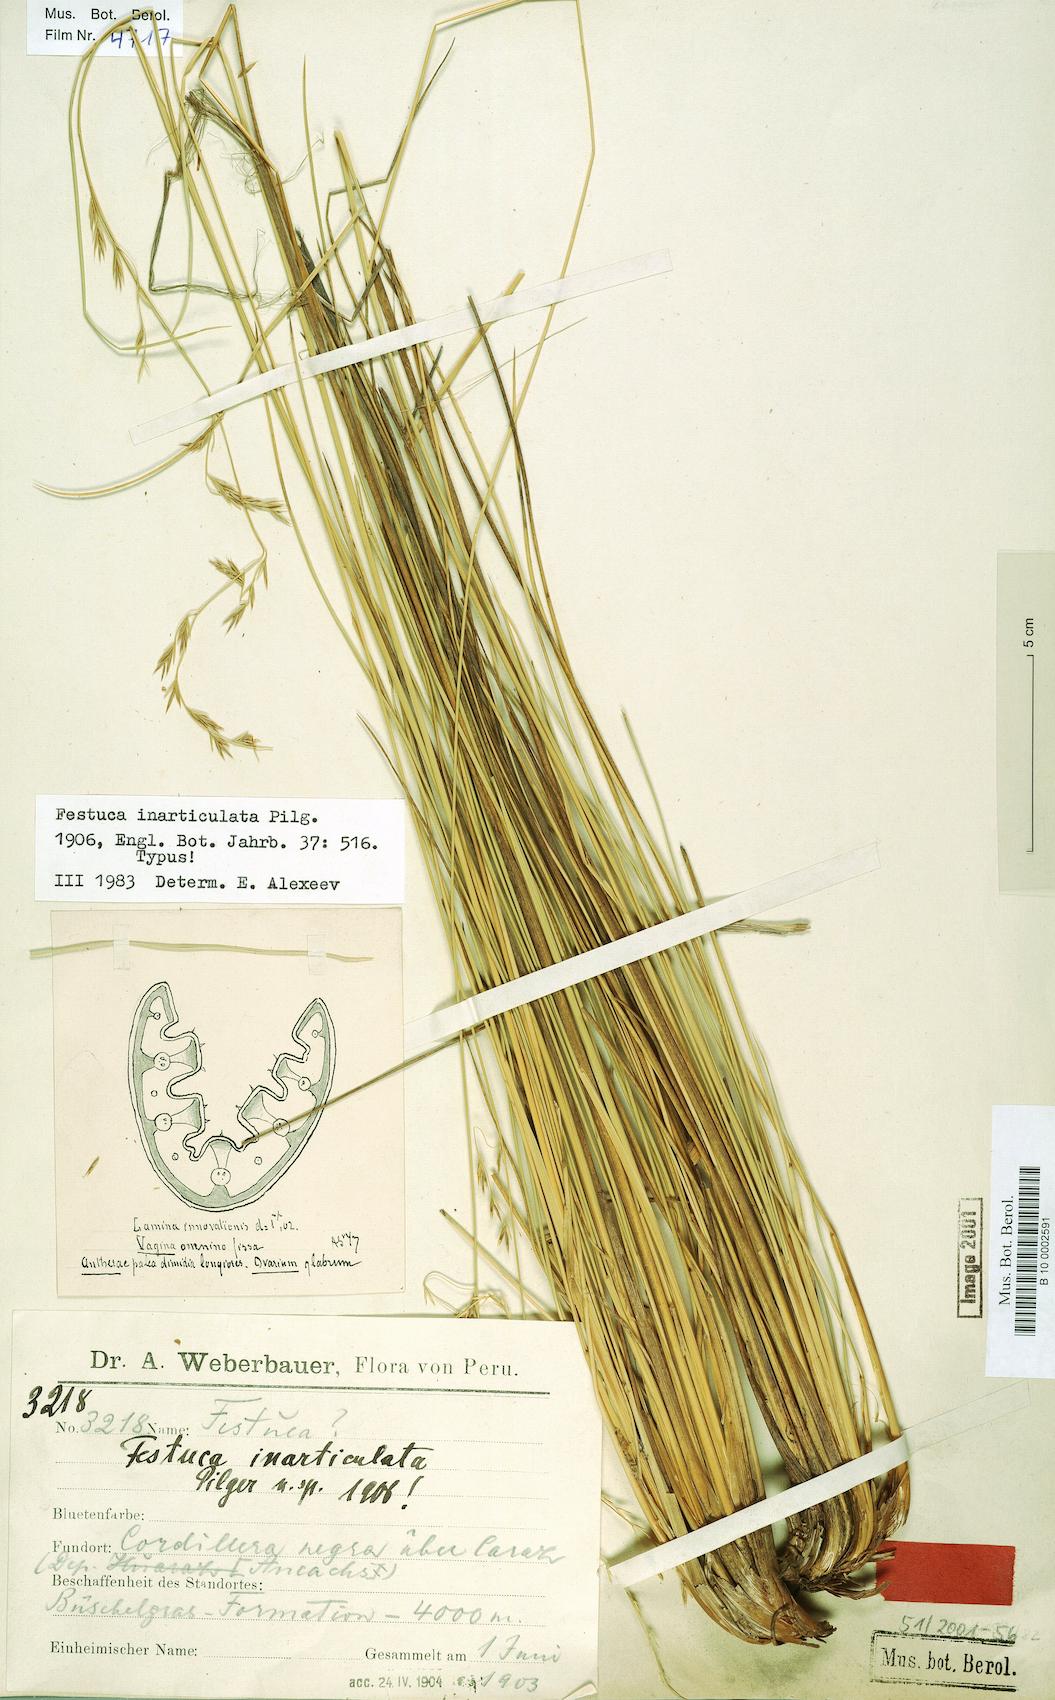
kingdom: Plantae
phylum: Tracheophyta
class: Liliopsida
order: Poales
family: Poaceae
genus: Festuca
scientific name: Festuca
